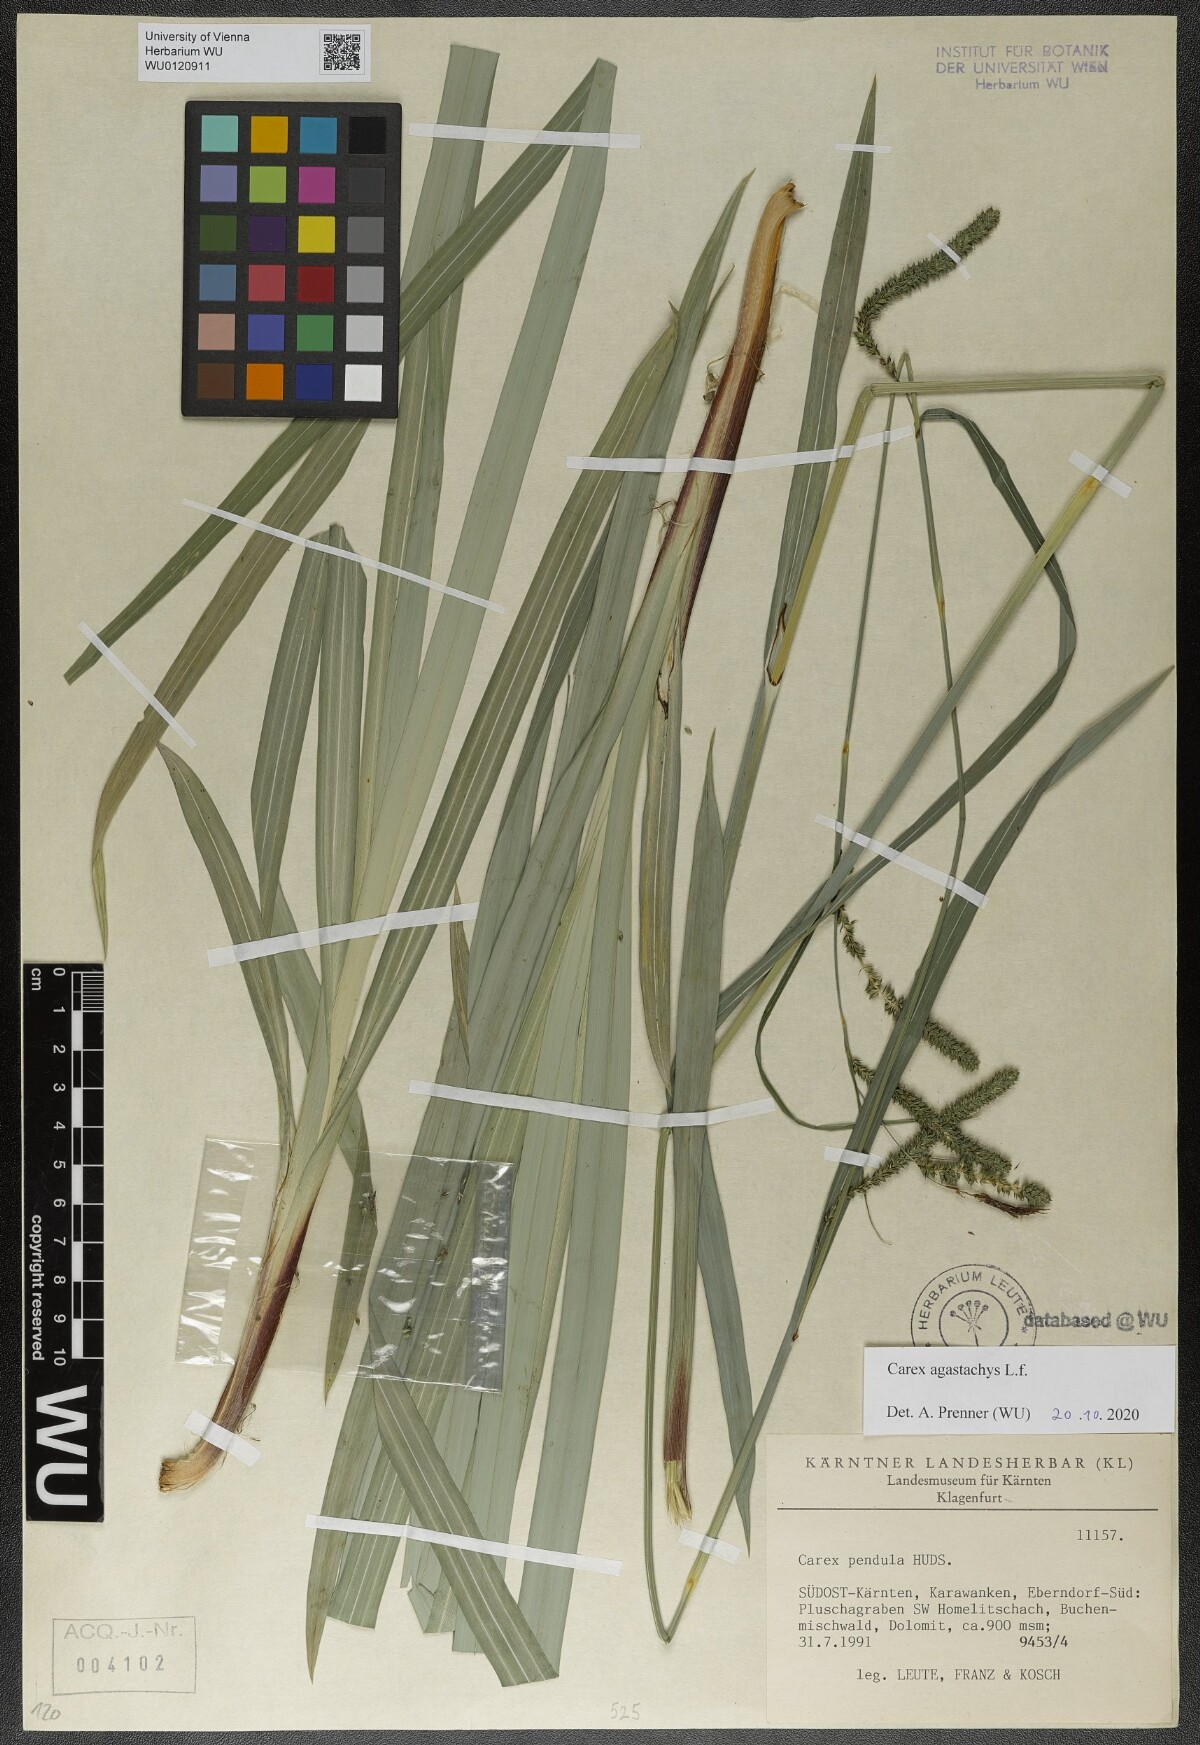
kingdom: Plantae
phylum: Tracheophyta
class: Liliopsida
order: Poales
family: Cyperaceae
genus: Carex
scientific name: Carex agastachys
